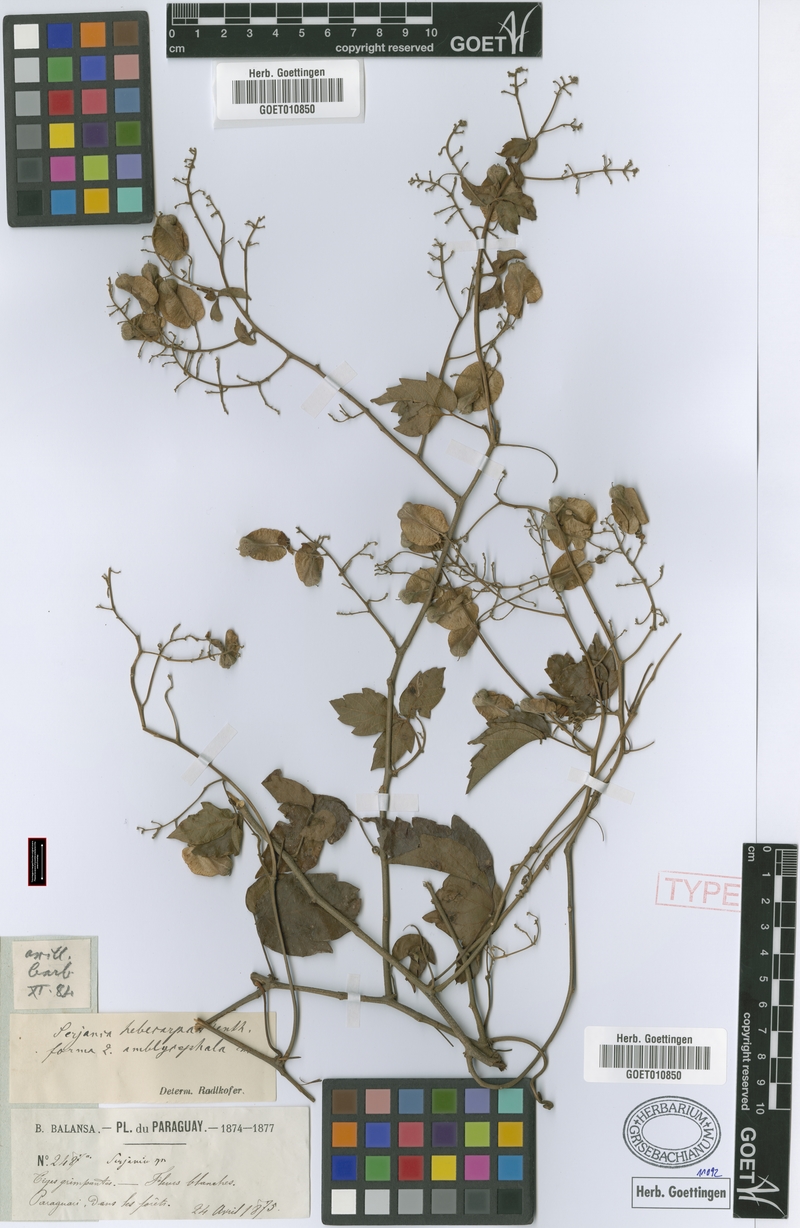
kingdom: Plantae
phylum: Tracheophyta
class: Magnoliopsida
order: Sapindales
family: Sapindaceae
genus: Serjania
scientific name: Serjania hebecarpa
